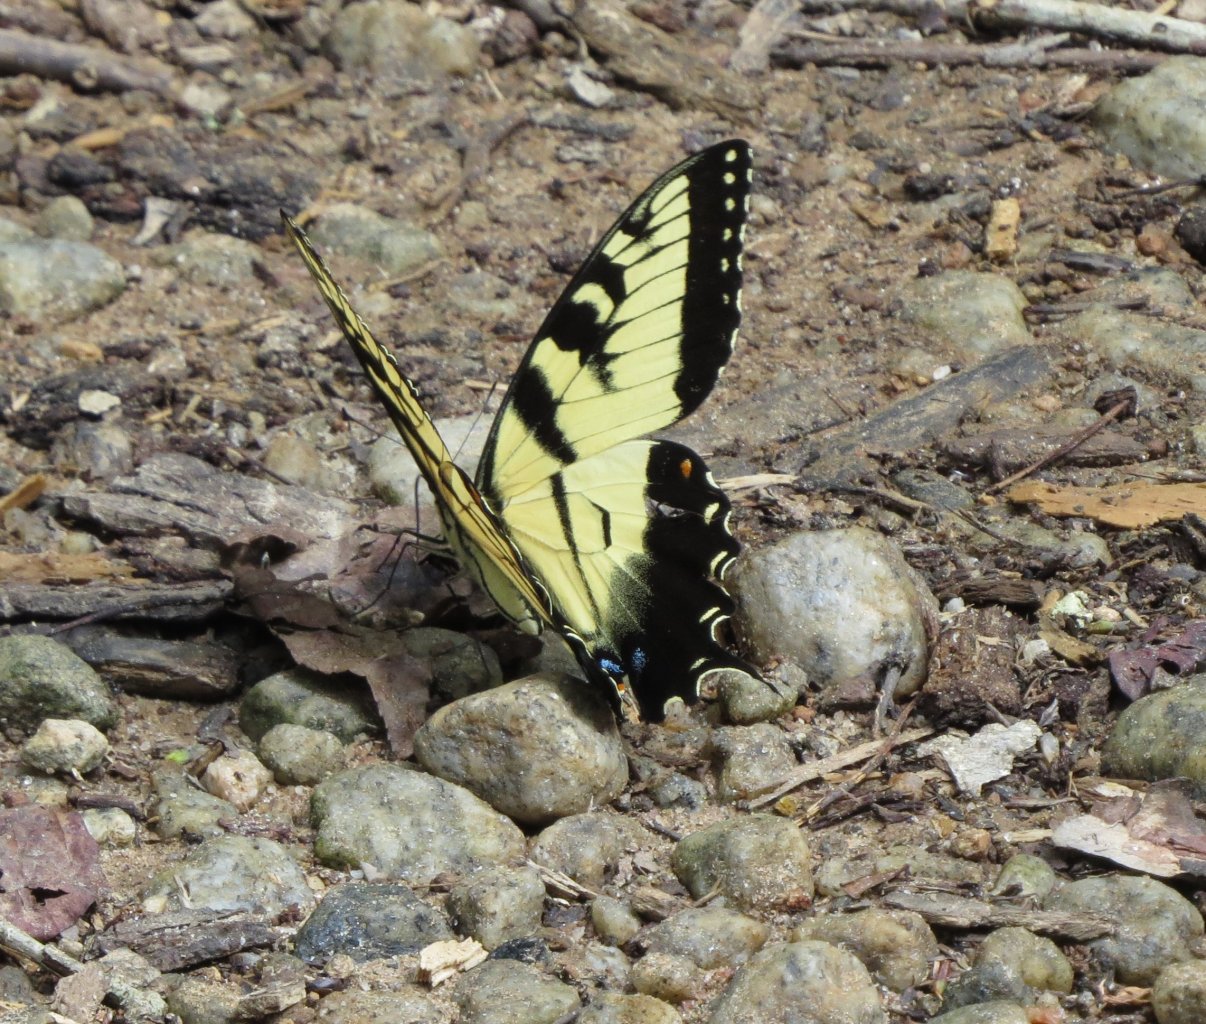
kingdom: Animalia
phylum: Arthropoda
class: Insecta
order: Lepidoptera
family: Papilionidae
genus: Pterourus
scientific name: Pterourus glaucus
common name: Eastern Tiger Swallowtail
